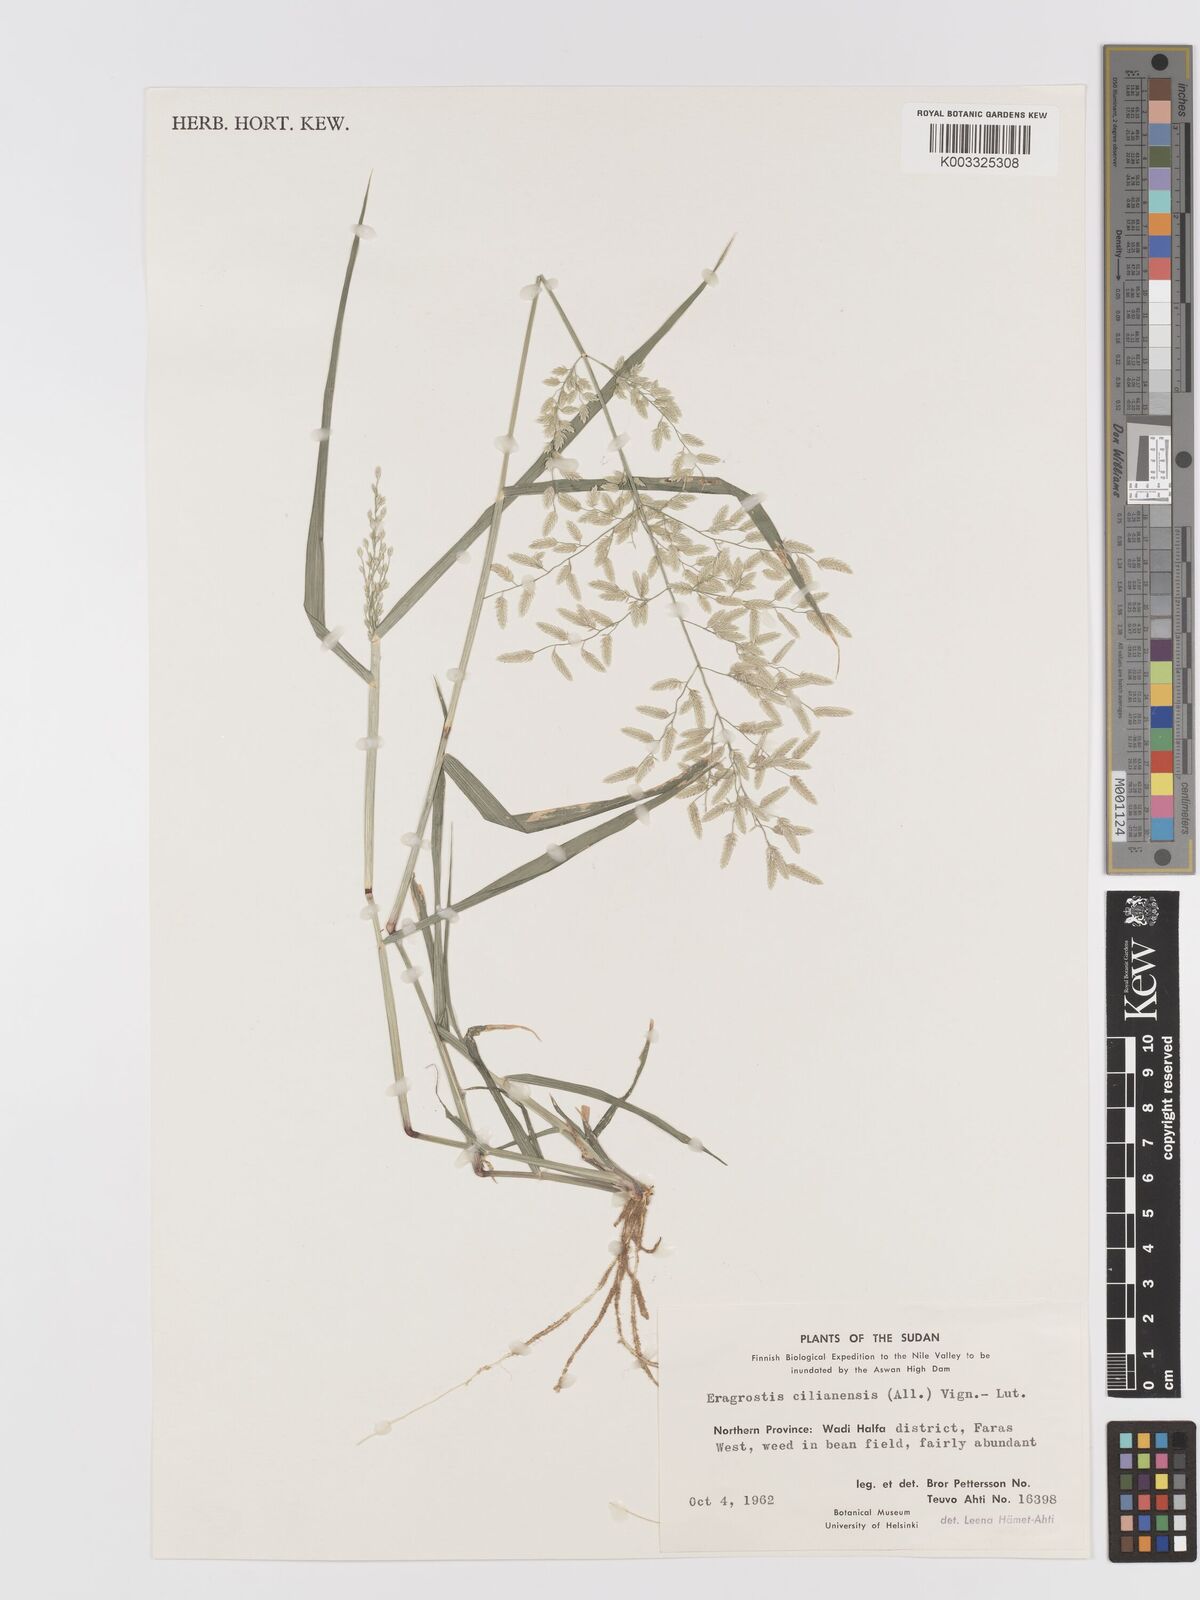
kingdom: Plantae
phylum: Tracheophyta
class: Liliopsida
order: Poales
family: Poaceae
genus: Eragrostis
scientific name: Eragrostis cilianensis
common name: Stinkgrass
